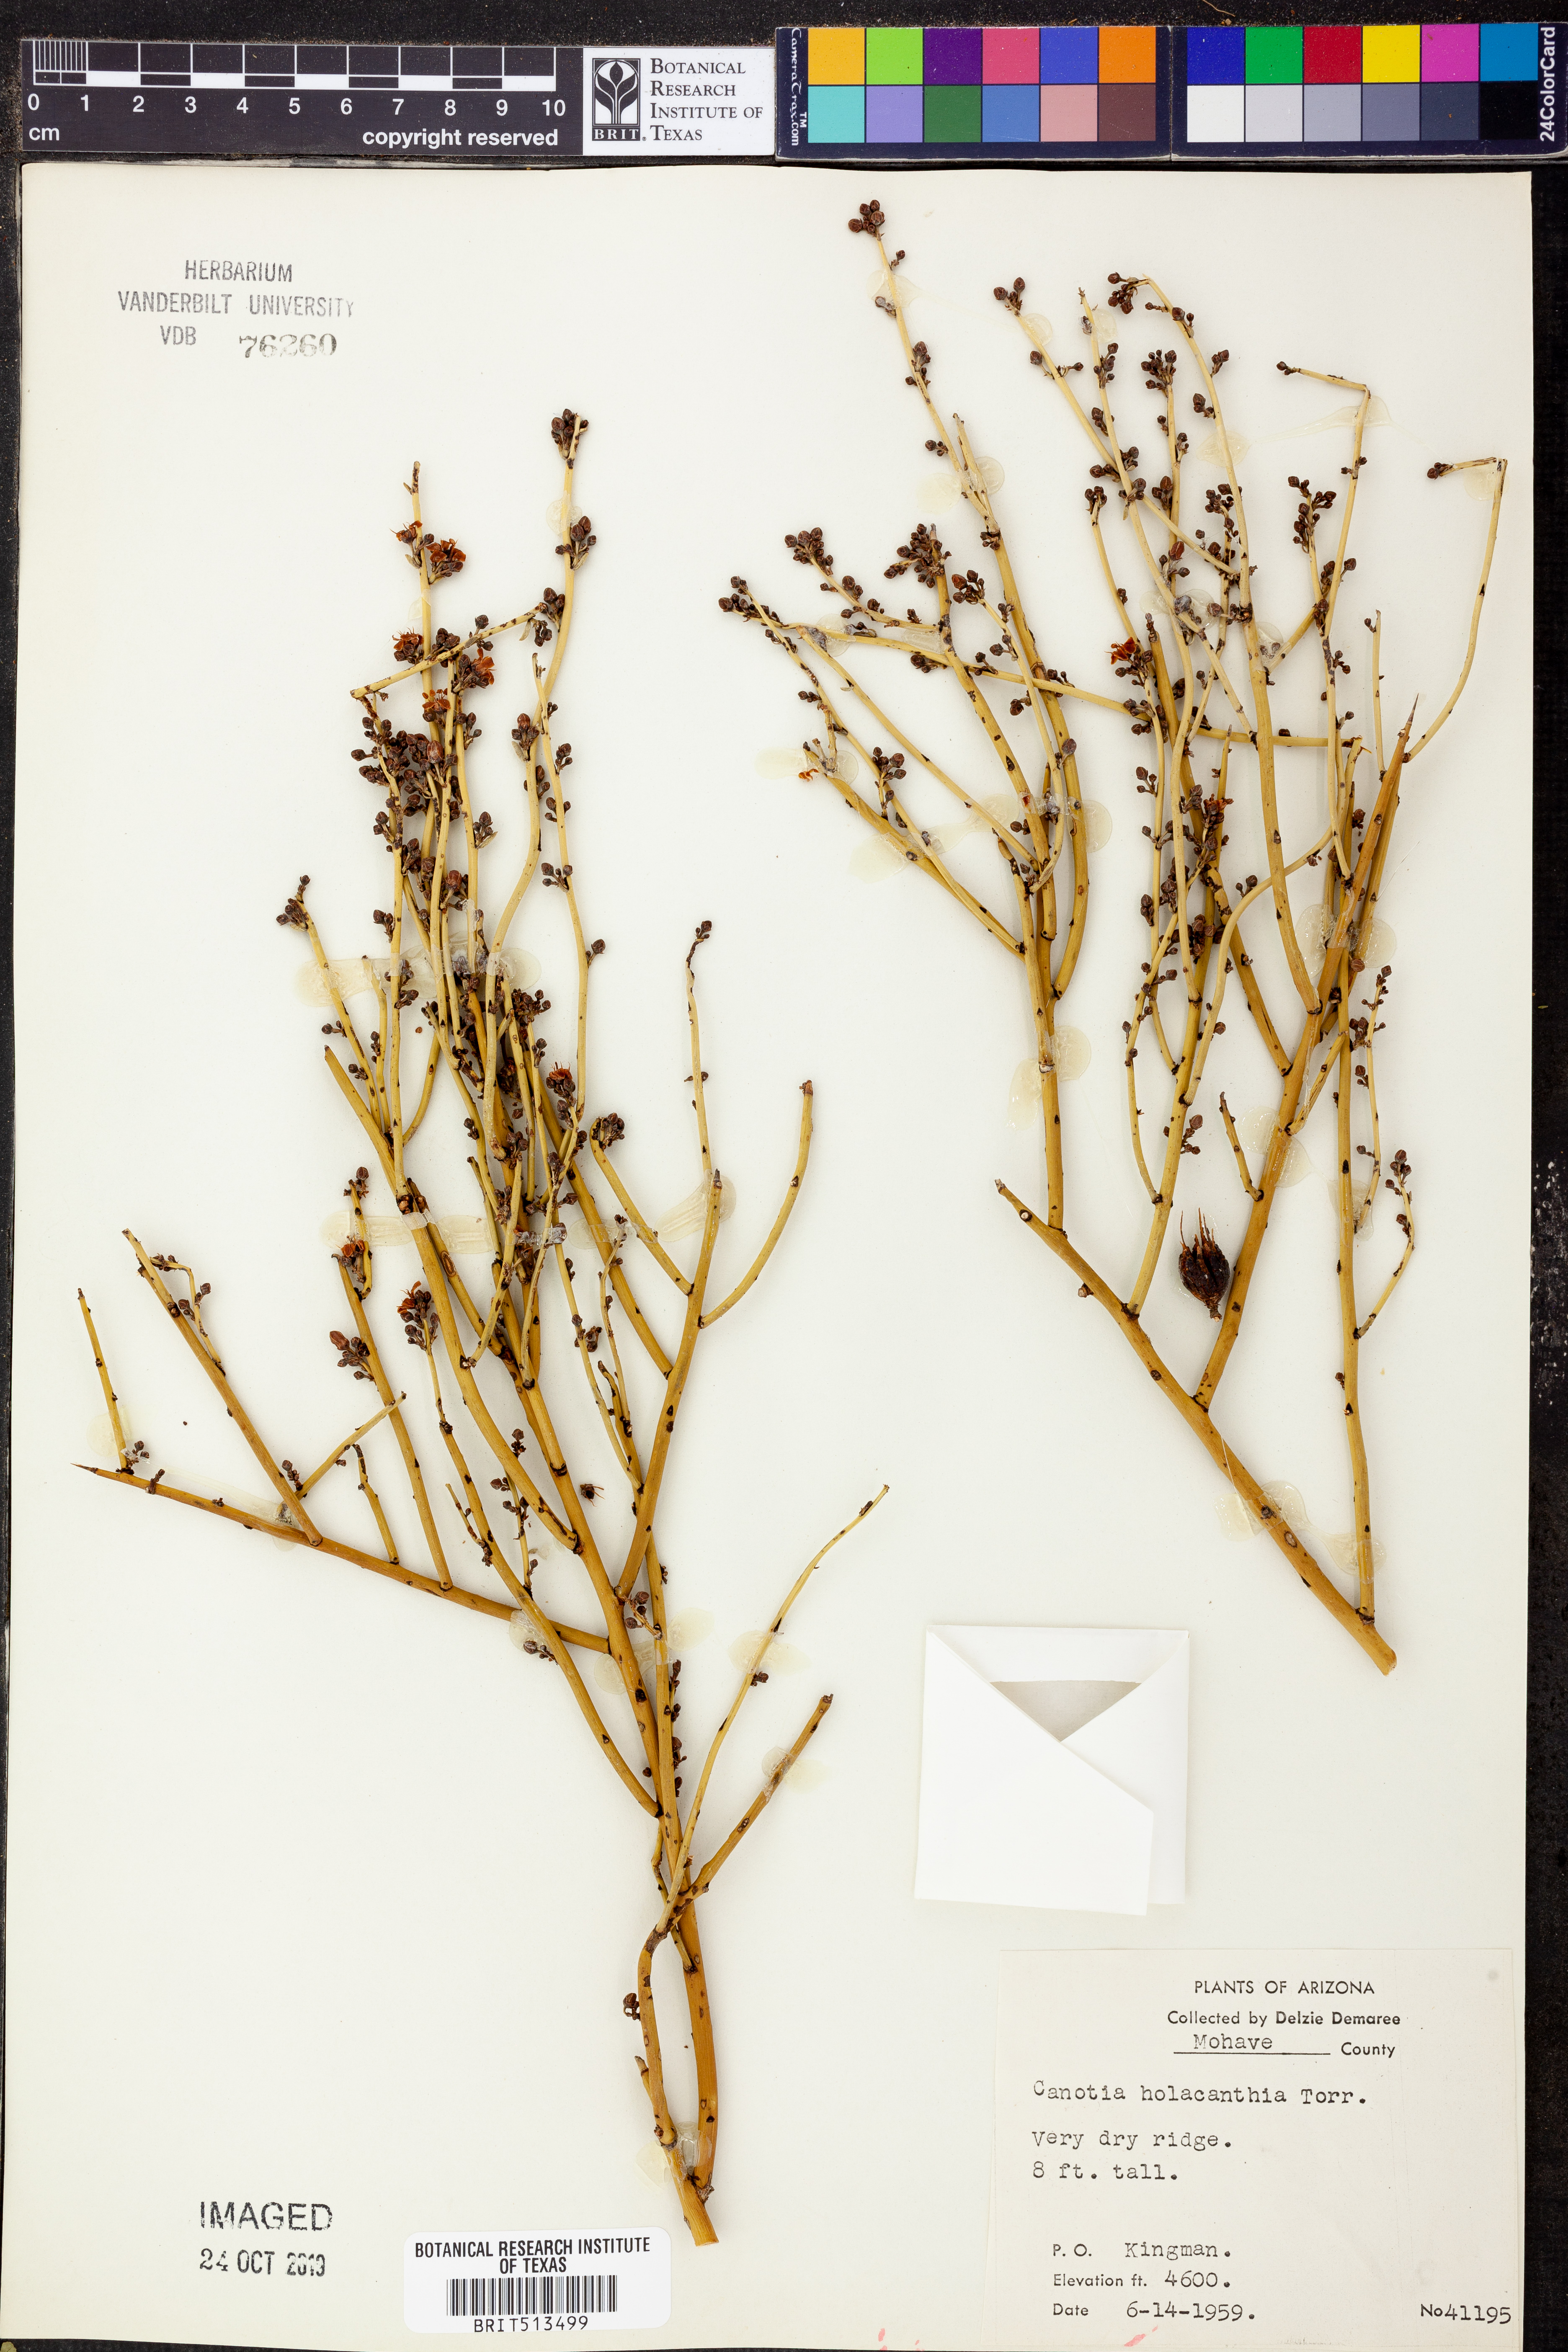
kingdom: Plantae
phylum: Tracheophyta
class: Magnoliopsida
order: Celastrales
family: Celastraceae
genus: Canotia
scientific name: Canotia holacantha
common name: Crucifixion thorns
